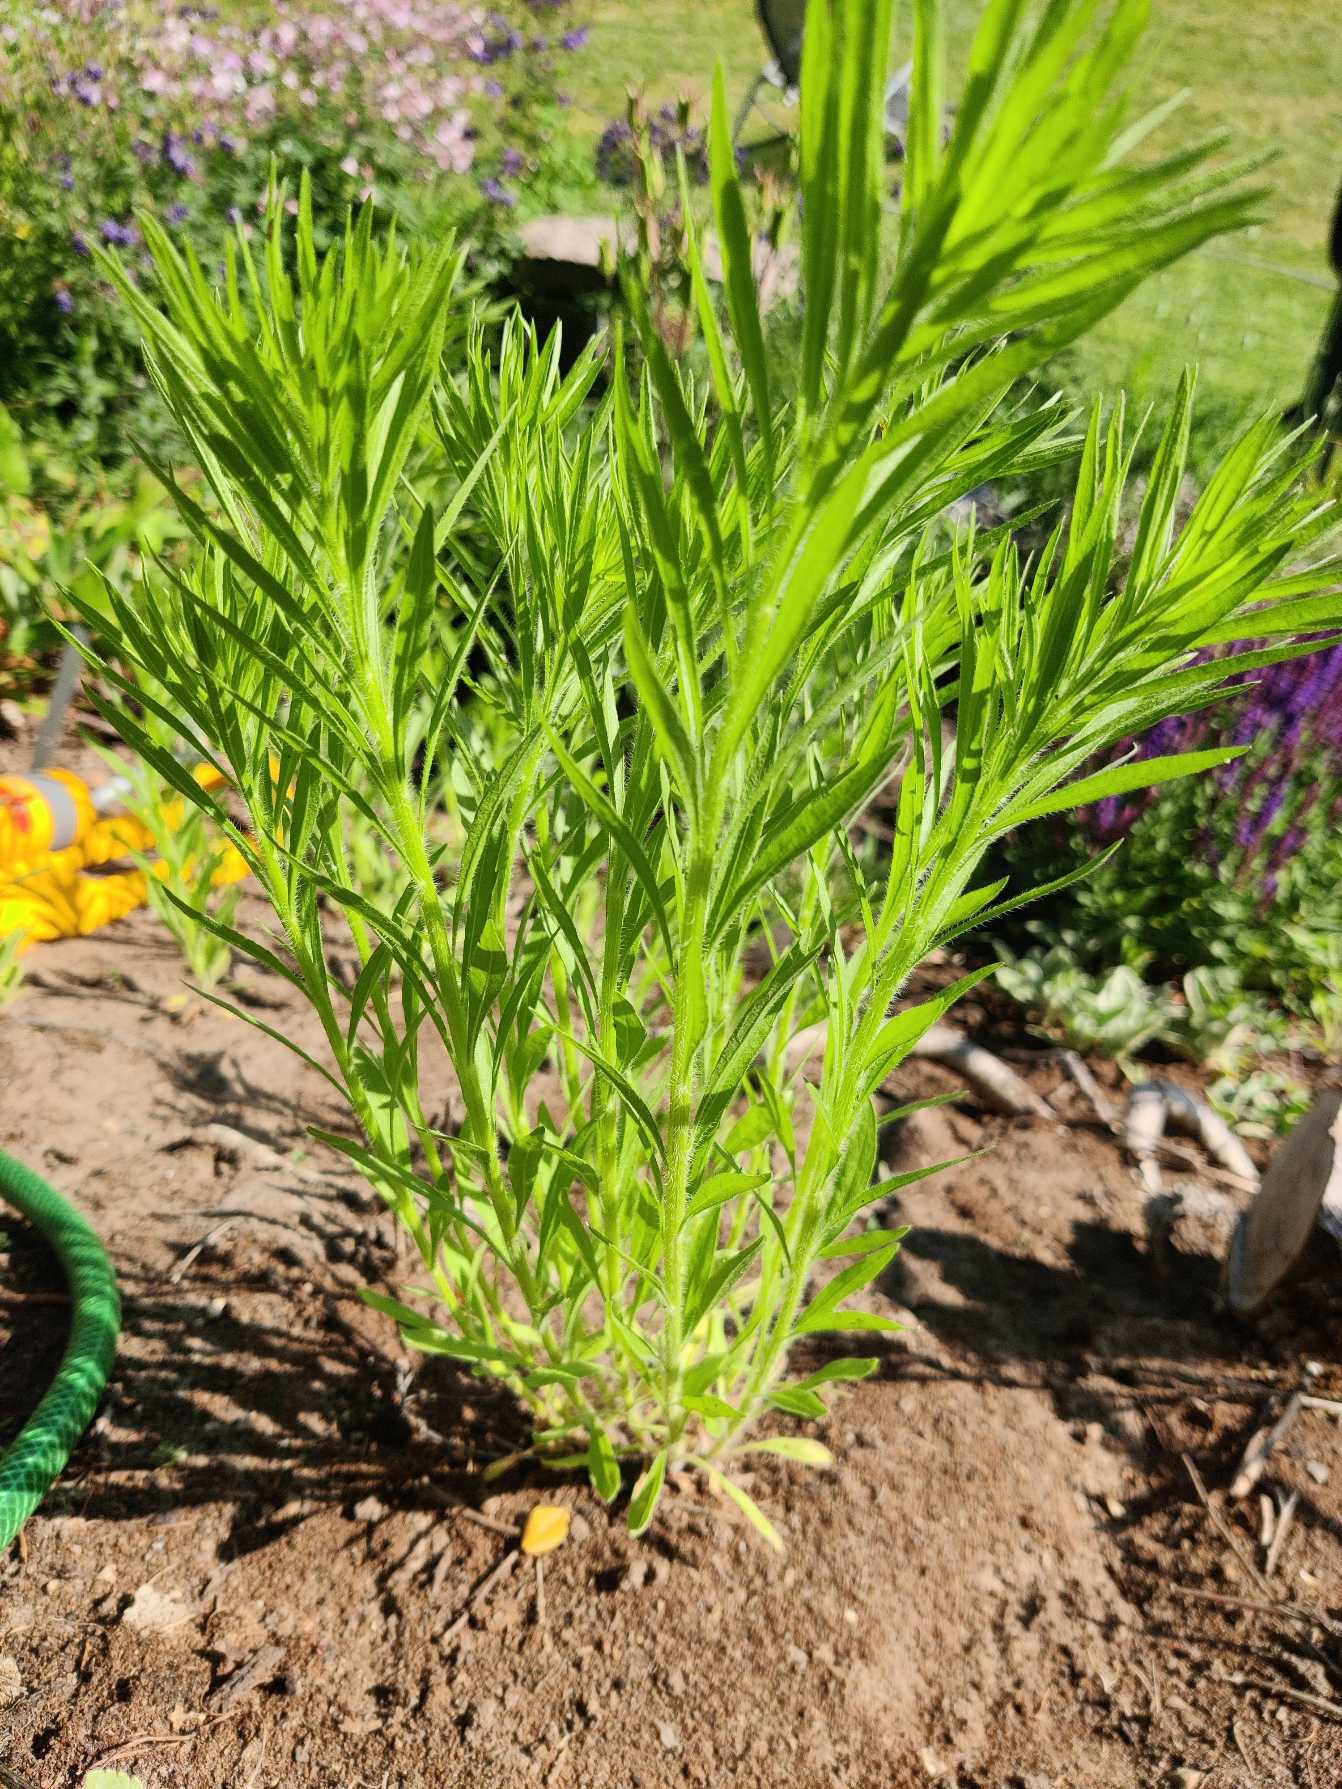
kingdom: Plantae
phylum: Tracheophyta
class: Magnoliopsida
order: Asterales
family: Asteraceae
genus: Erigeron
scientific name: Erigeron canadensis
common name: Kanadisk bakkestjerne
